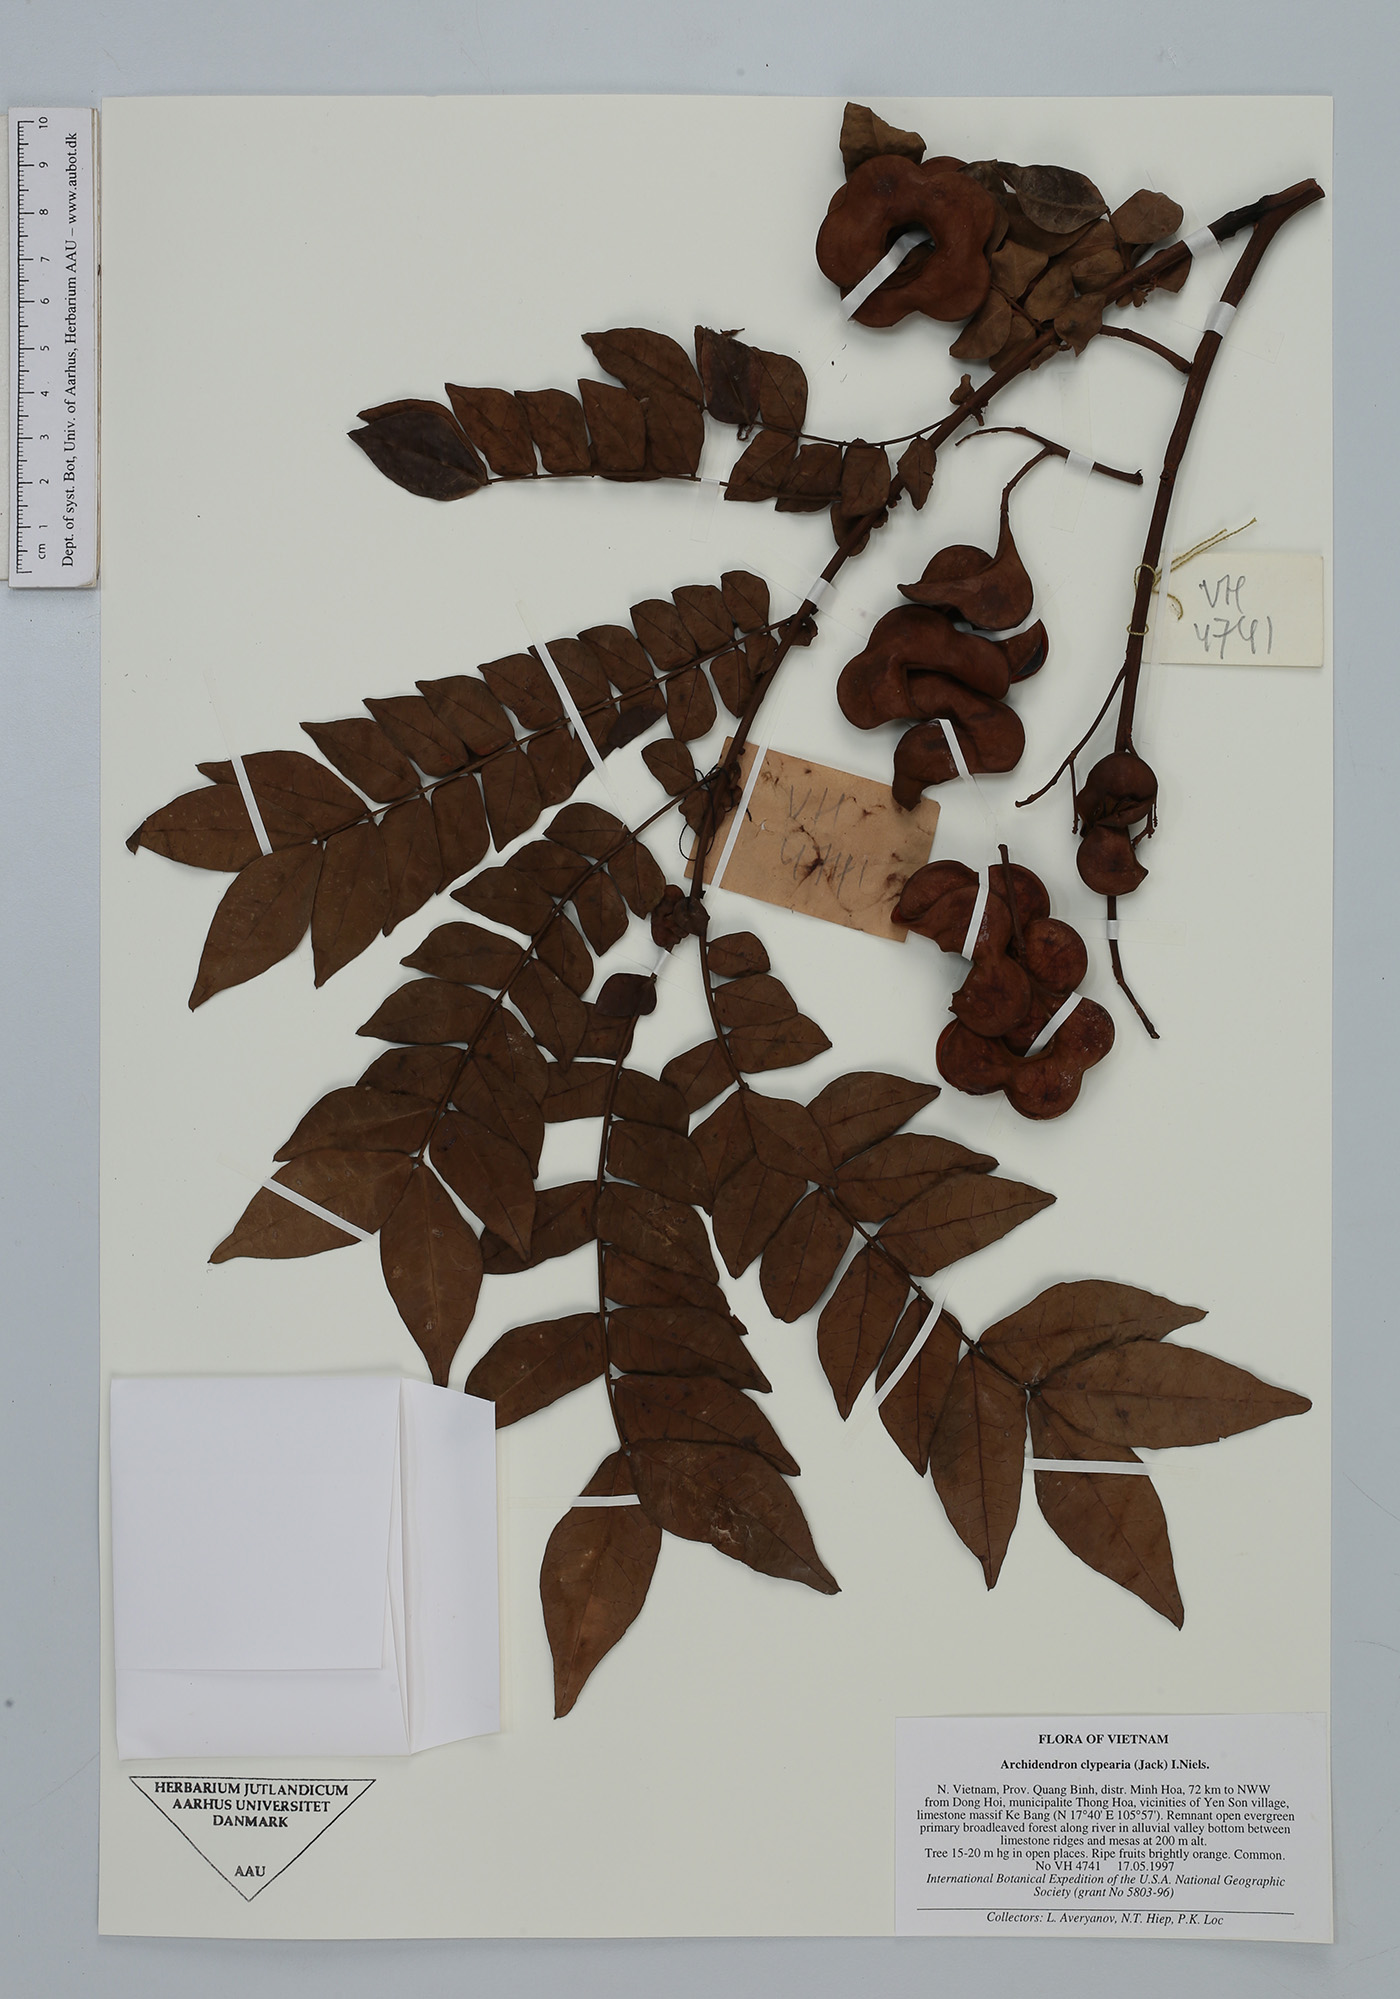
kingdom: Plantae
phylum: Tracheophyta
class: Magnoliopsida
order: Fabales
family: Fabaceae
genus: Archidendron
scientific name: Archidendron clypearia
